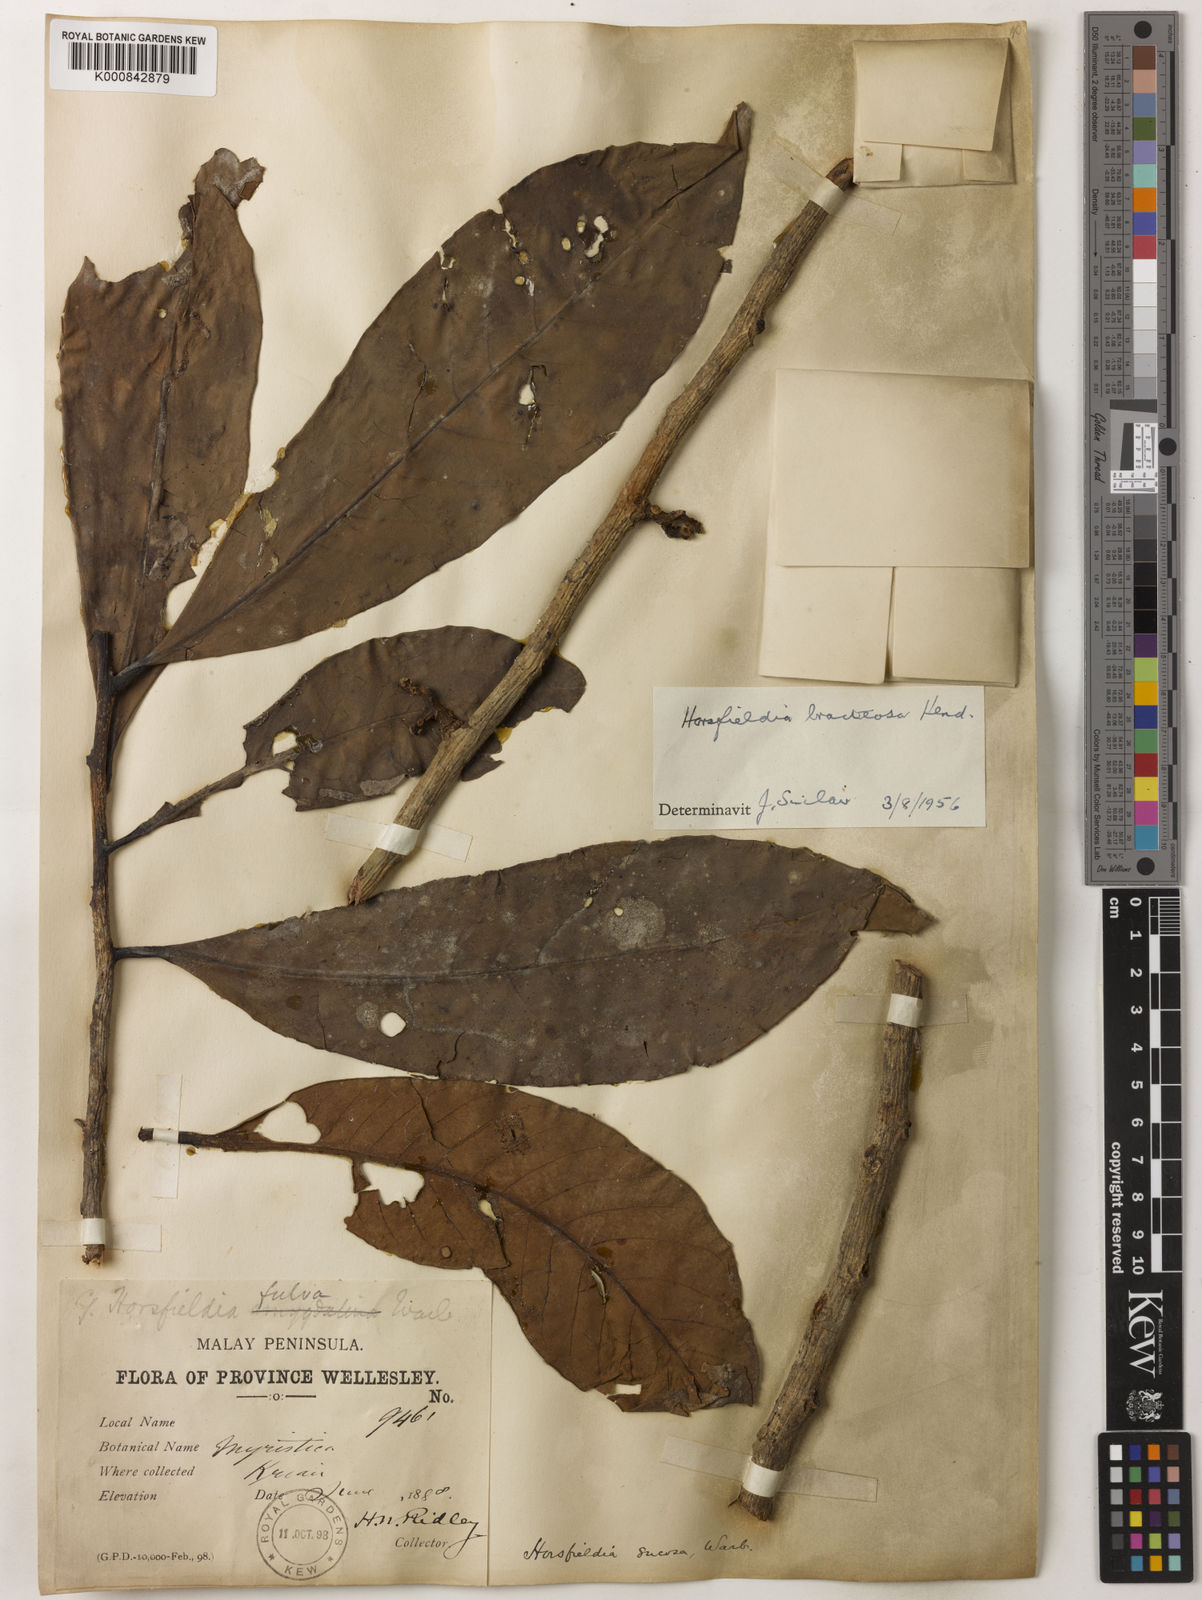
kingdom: Plantae
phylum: Tracheophyta
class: Magnoliopsida
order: Magnoliales
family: Myristicaceae
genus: Horsfieldia
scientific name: Horsfieldia sucosa
